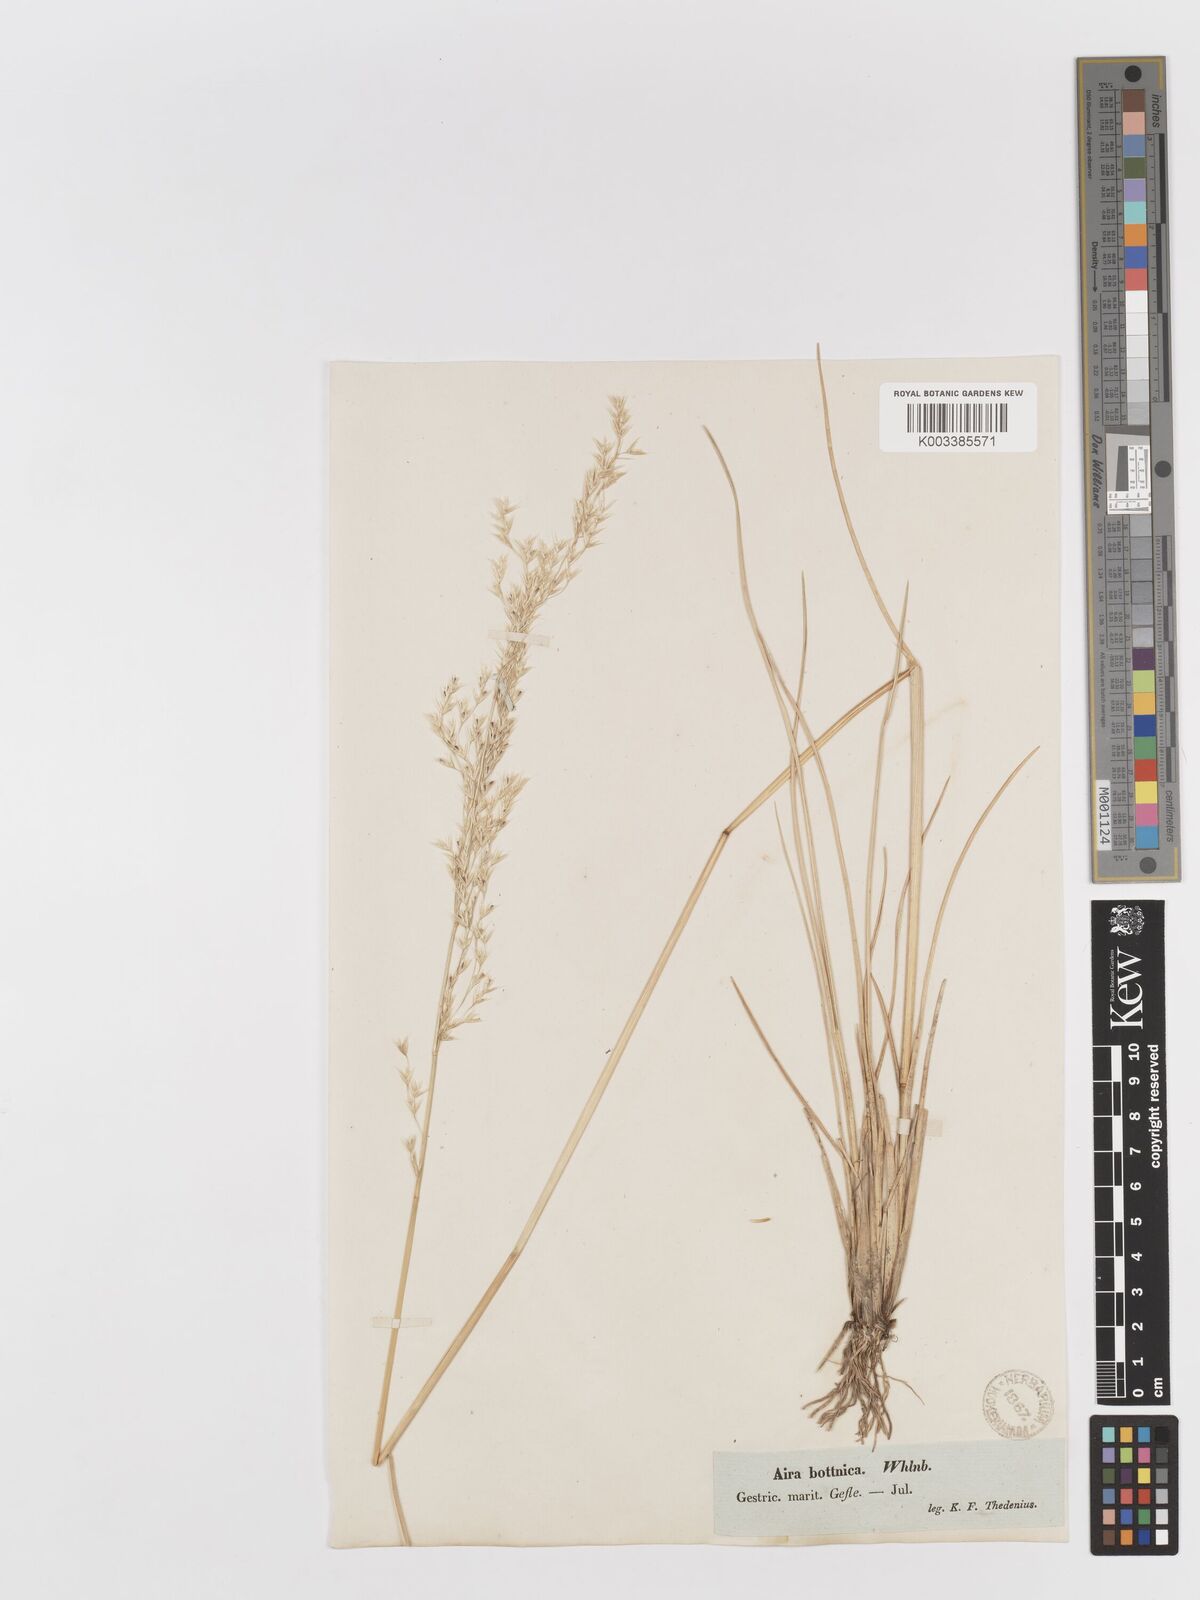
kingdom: Plantae
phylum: Tracheophyta
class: Liliopsida
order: Poales
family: Poaceae
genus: Deschampsia
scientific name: Deschampsia cespitosa
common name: Tufted hair-grass
